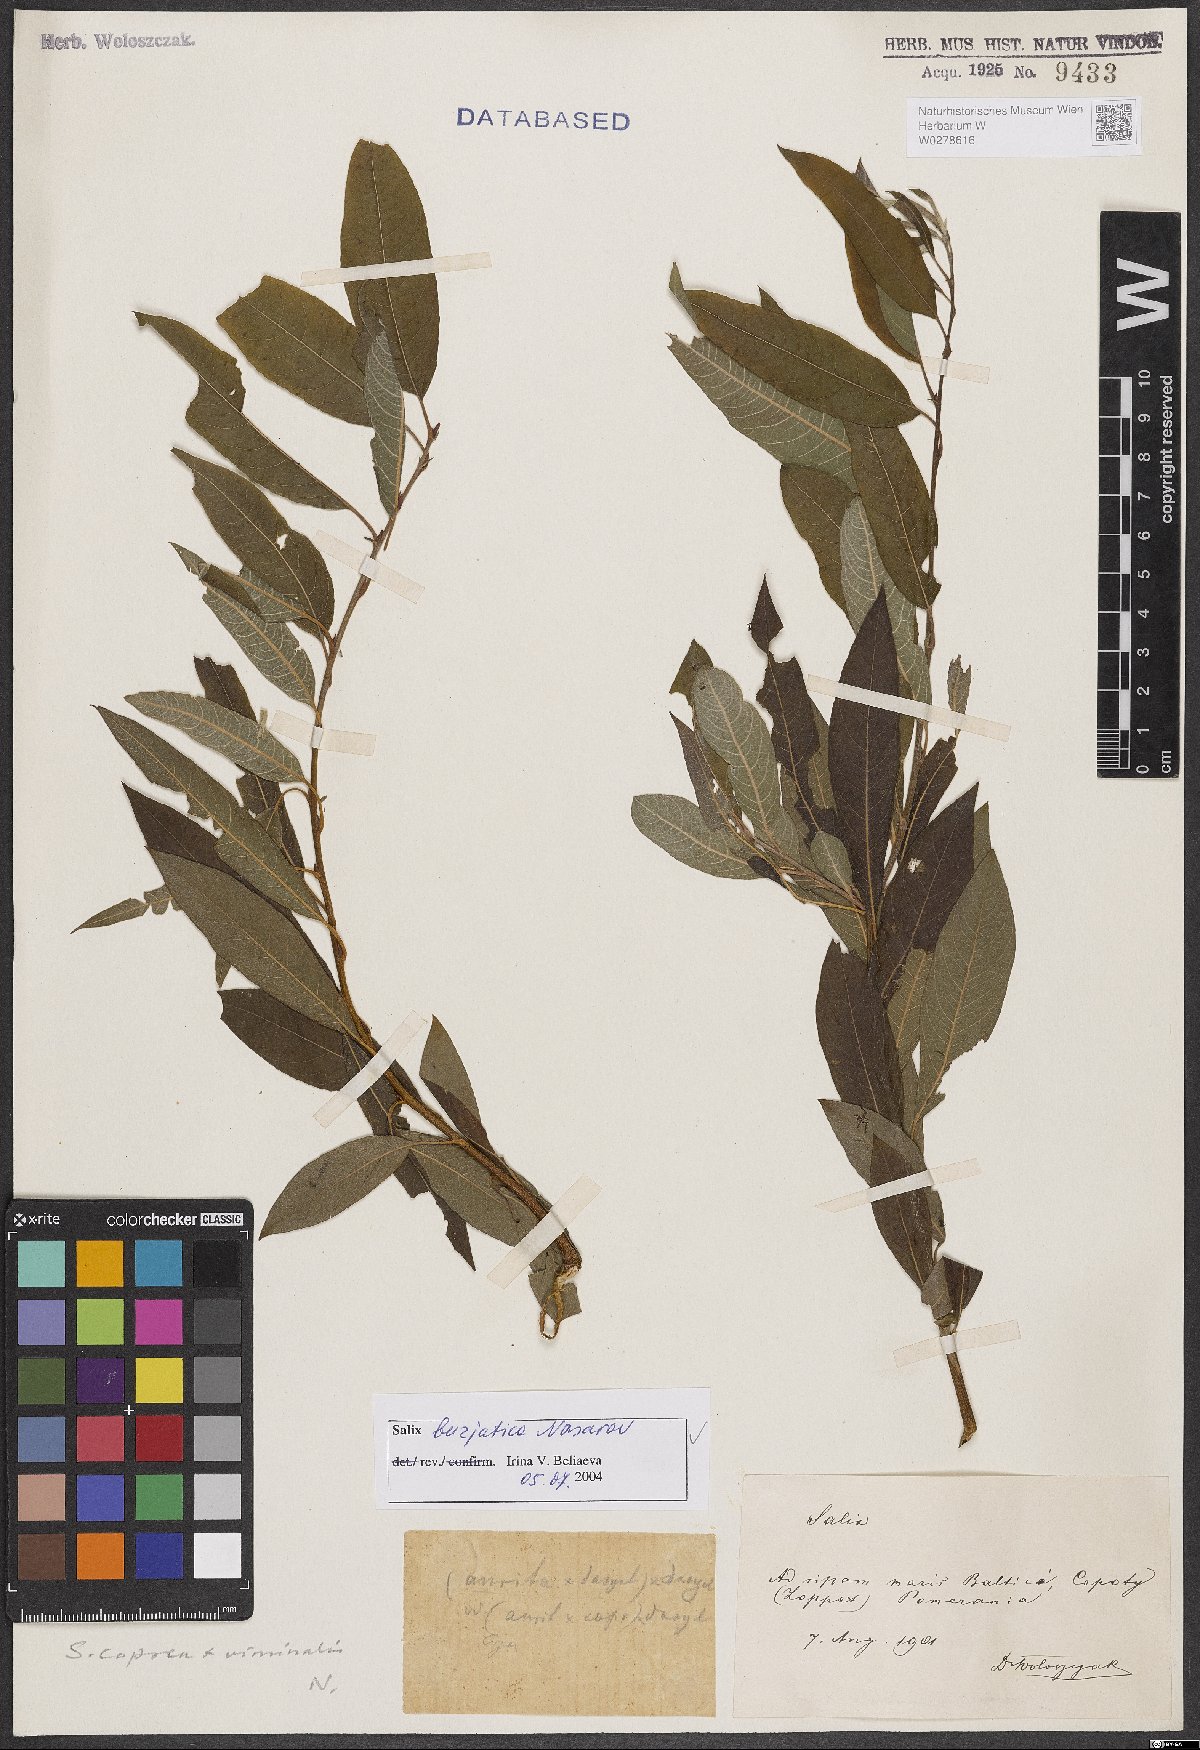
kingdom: Plantae
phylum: Tracheophyta
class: Magnoliopsida
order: Malpighiales
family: Salicaceae
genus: Salix
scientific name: Salix gmelinii
